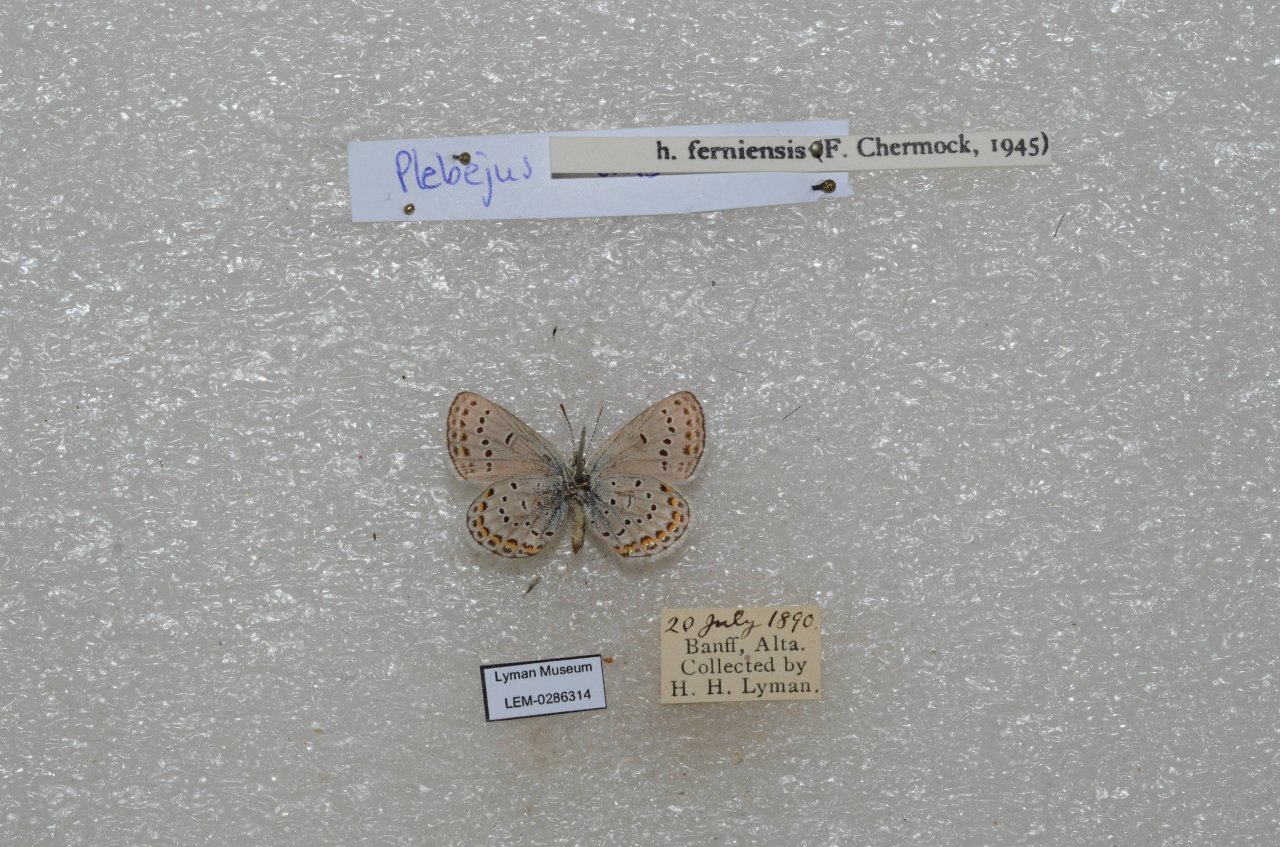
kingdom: Animalia
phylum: Arthropoda
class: Insecta
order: Lepidoptera
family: Lycaenidae
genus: Lycaeides
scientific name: Lycaeides idas
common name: Northern Blue
